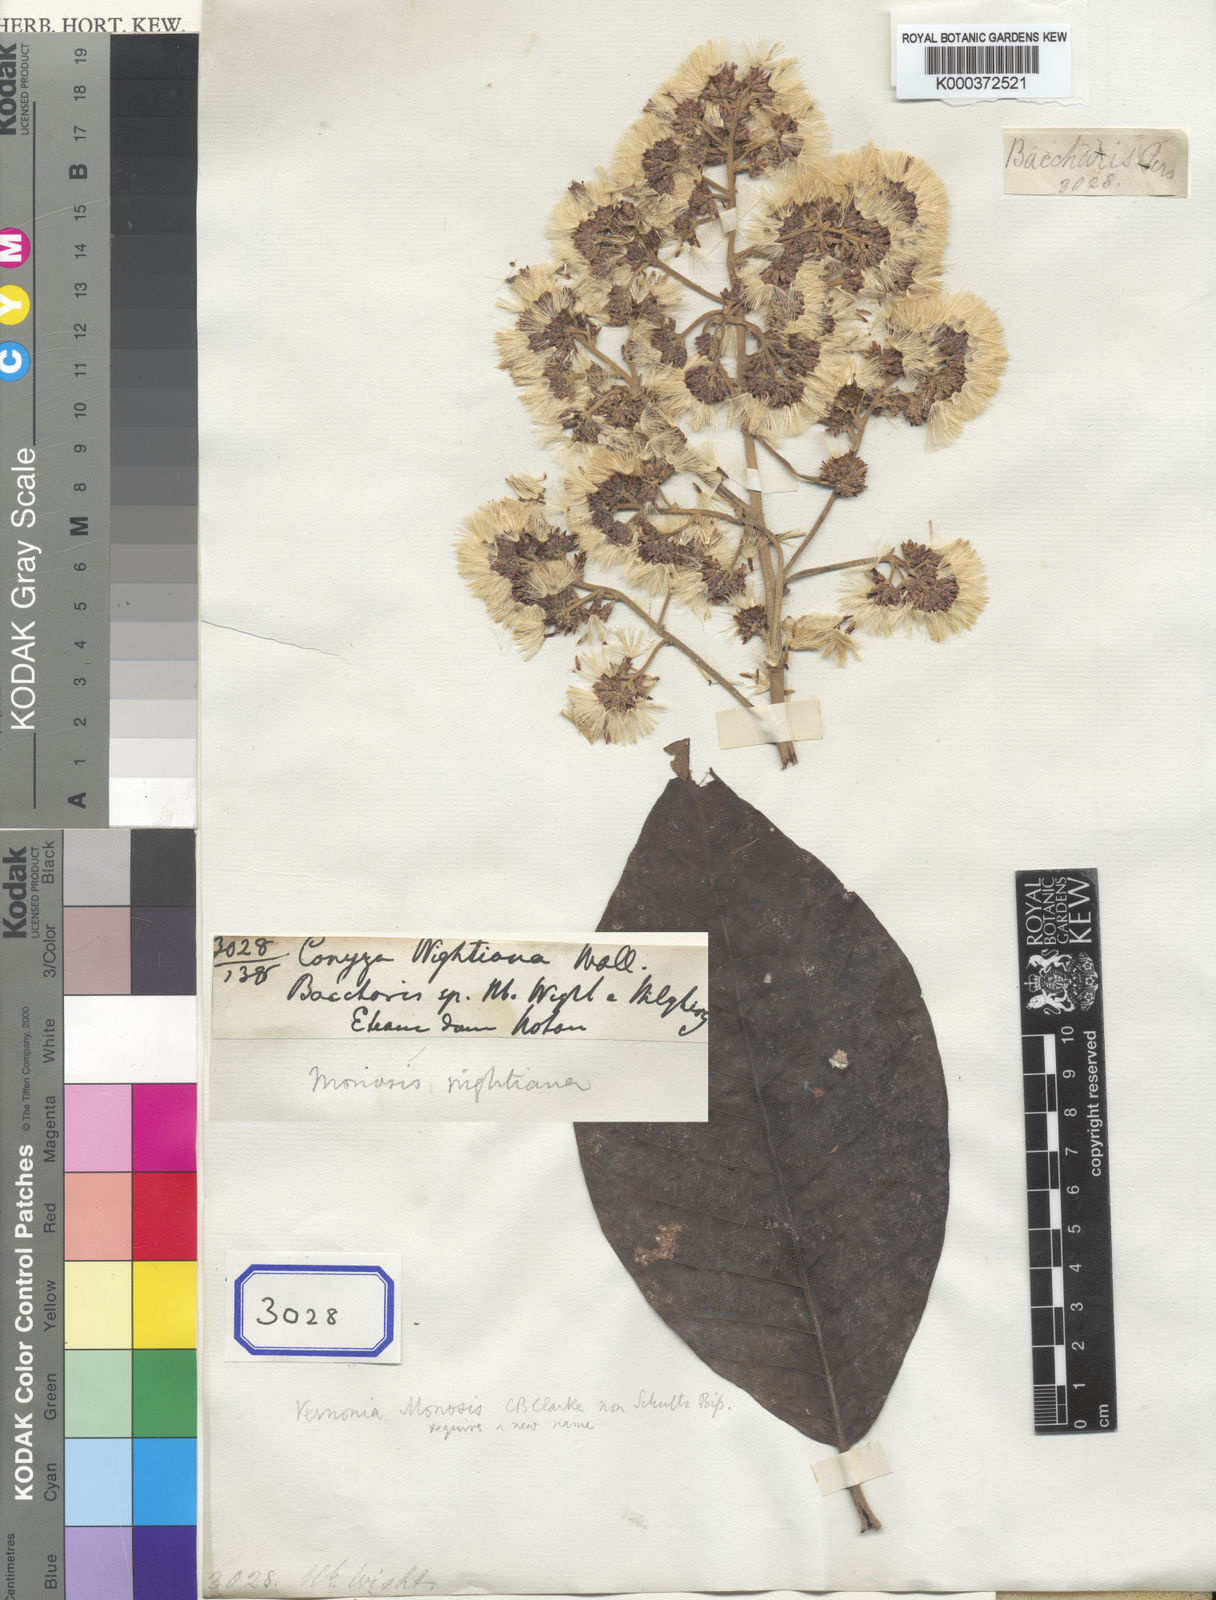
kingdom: Plantae
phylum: Tracheophyta
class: Magnoliopsida
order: Asterales
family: Asteraceae
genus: Strobocalyx
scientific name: Strobocalyx arborea
